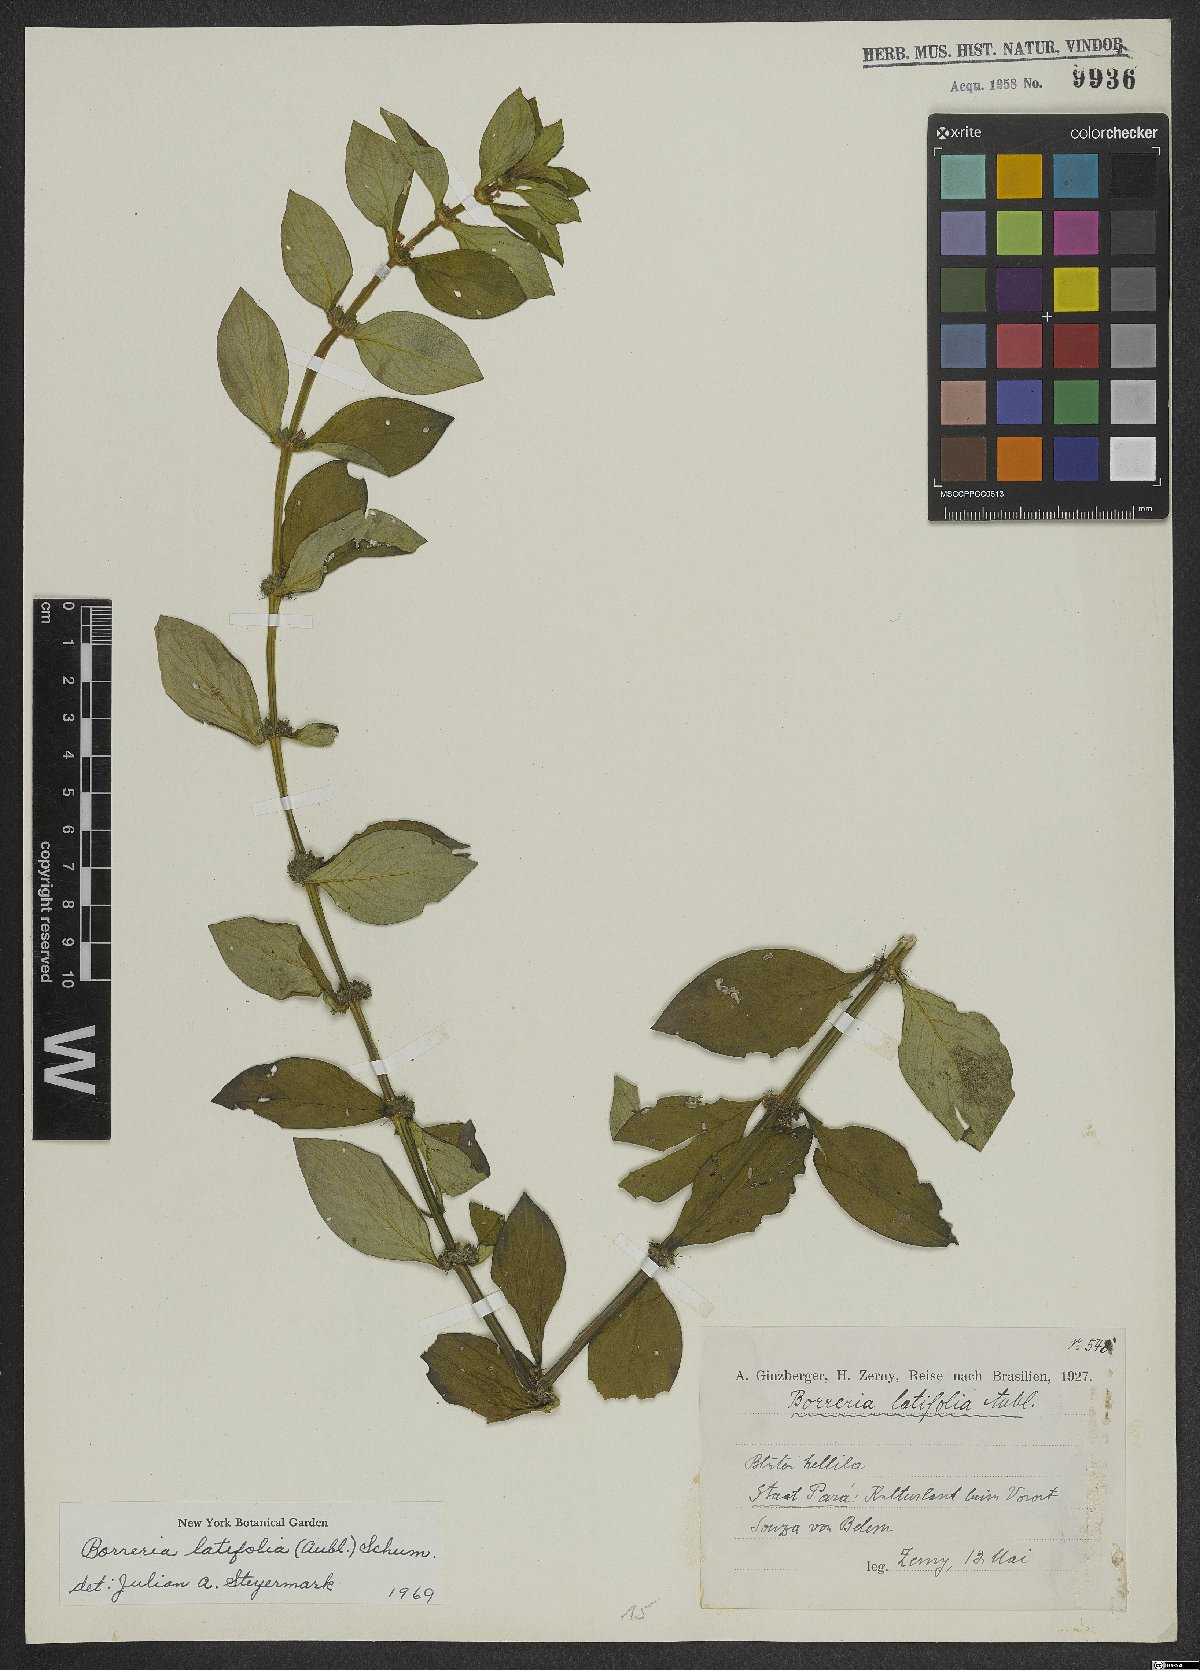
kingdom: Plantae
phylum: Tracheophyta
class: Magnoliopsida
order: Gentianales
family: Rubiaceae
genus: Spermacoce
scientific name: Spermacoce latifolia
